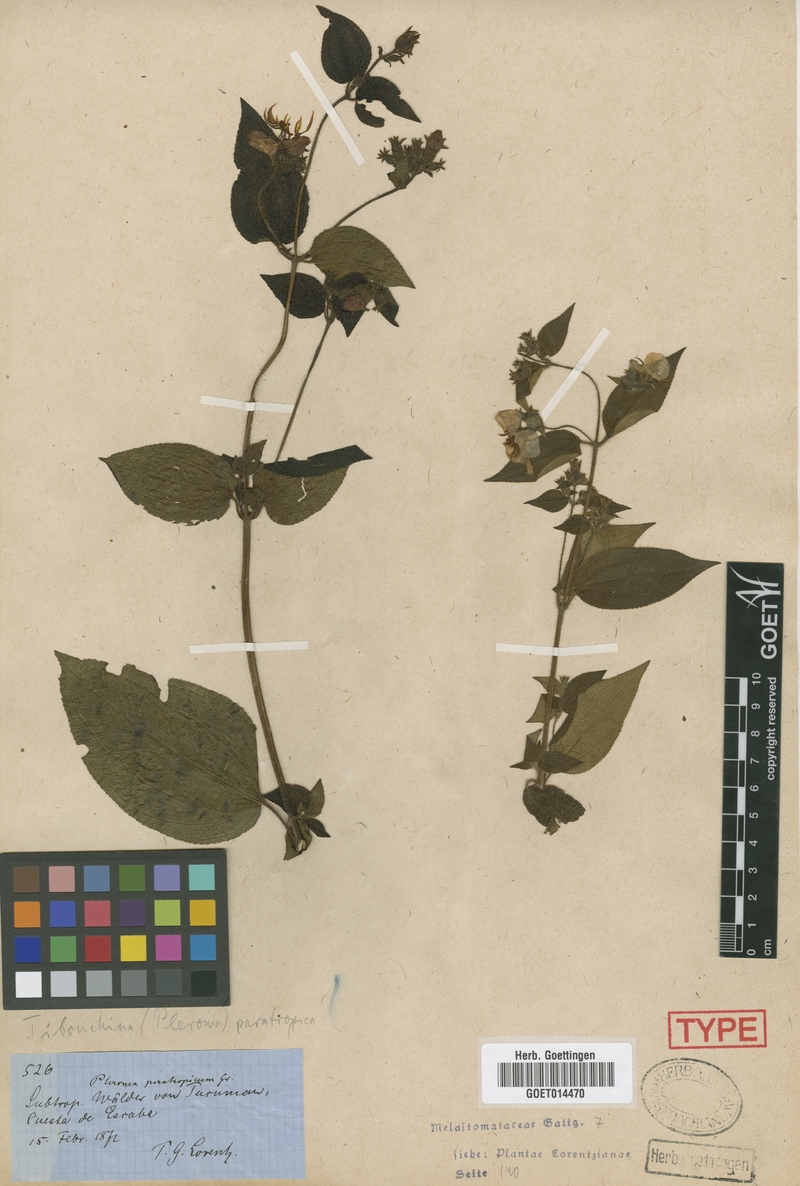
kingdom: Plantae
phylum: Tracheophyta
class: Magnoliopsida
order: Myrtales
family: Melastomataceae
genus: Chaetogastra
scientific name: Chaetogastra paratropica
